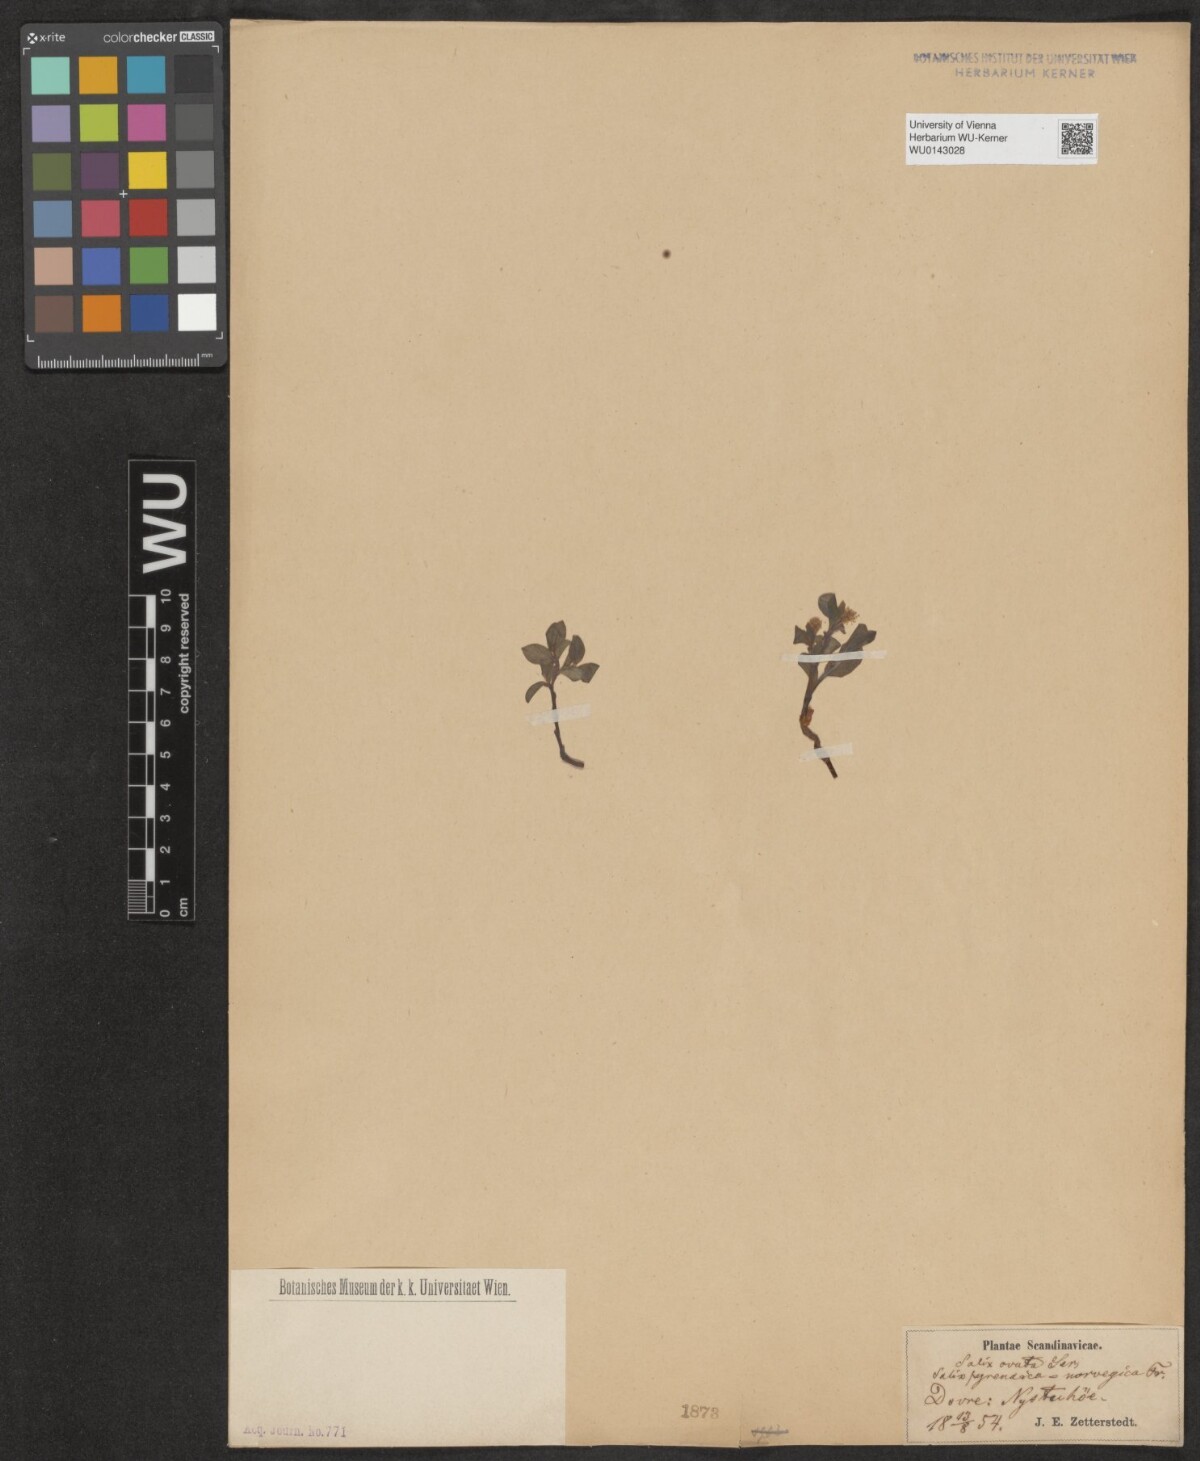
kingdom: Plantae
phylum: Tracheophyta
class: Magnoliopsida
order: Malpighiales
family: Salicaceae
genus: Salix
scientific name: Salix myrsinifolia
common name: Dark-leaved willow
